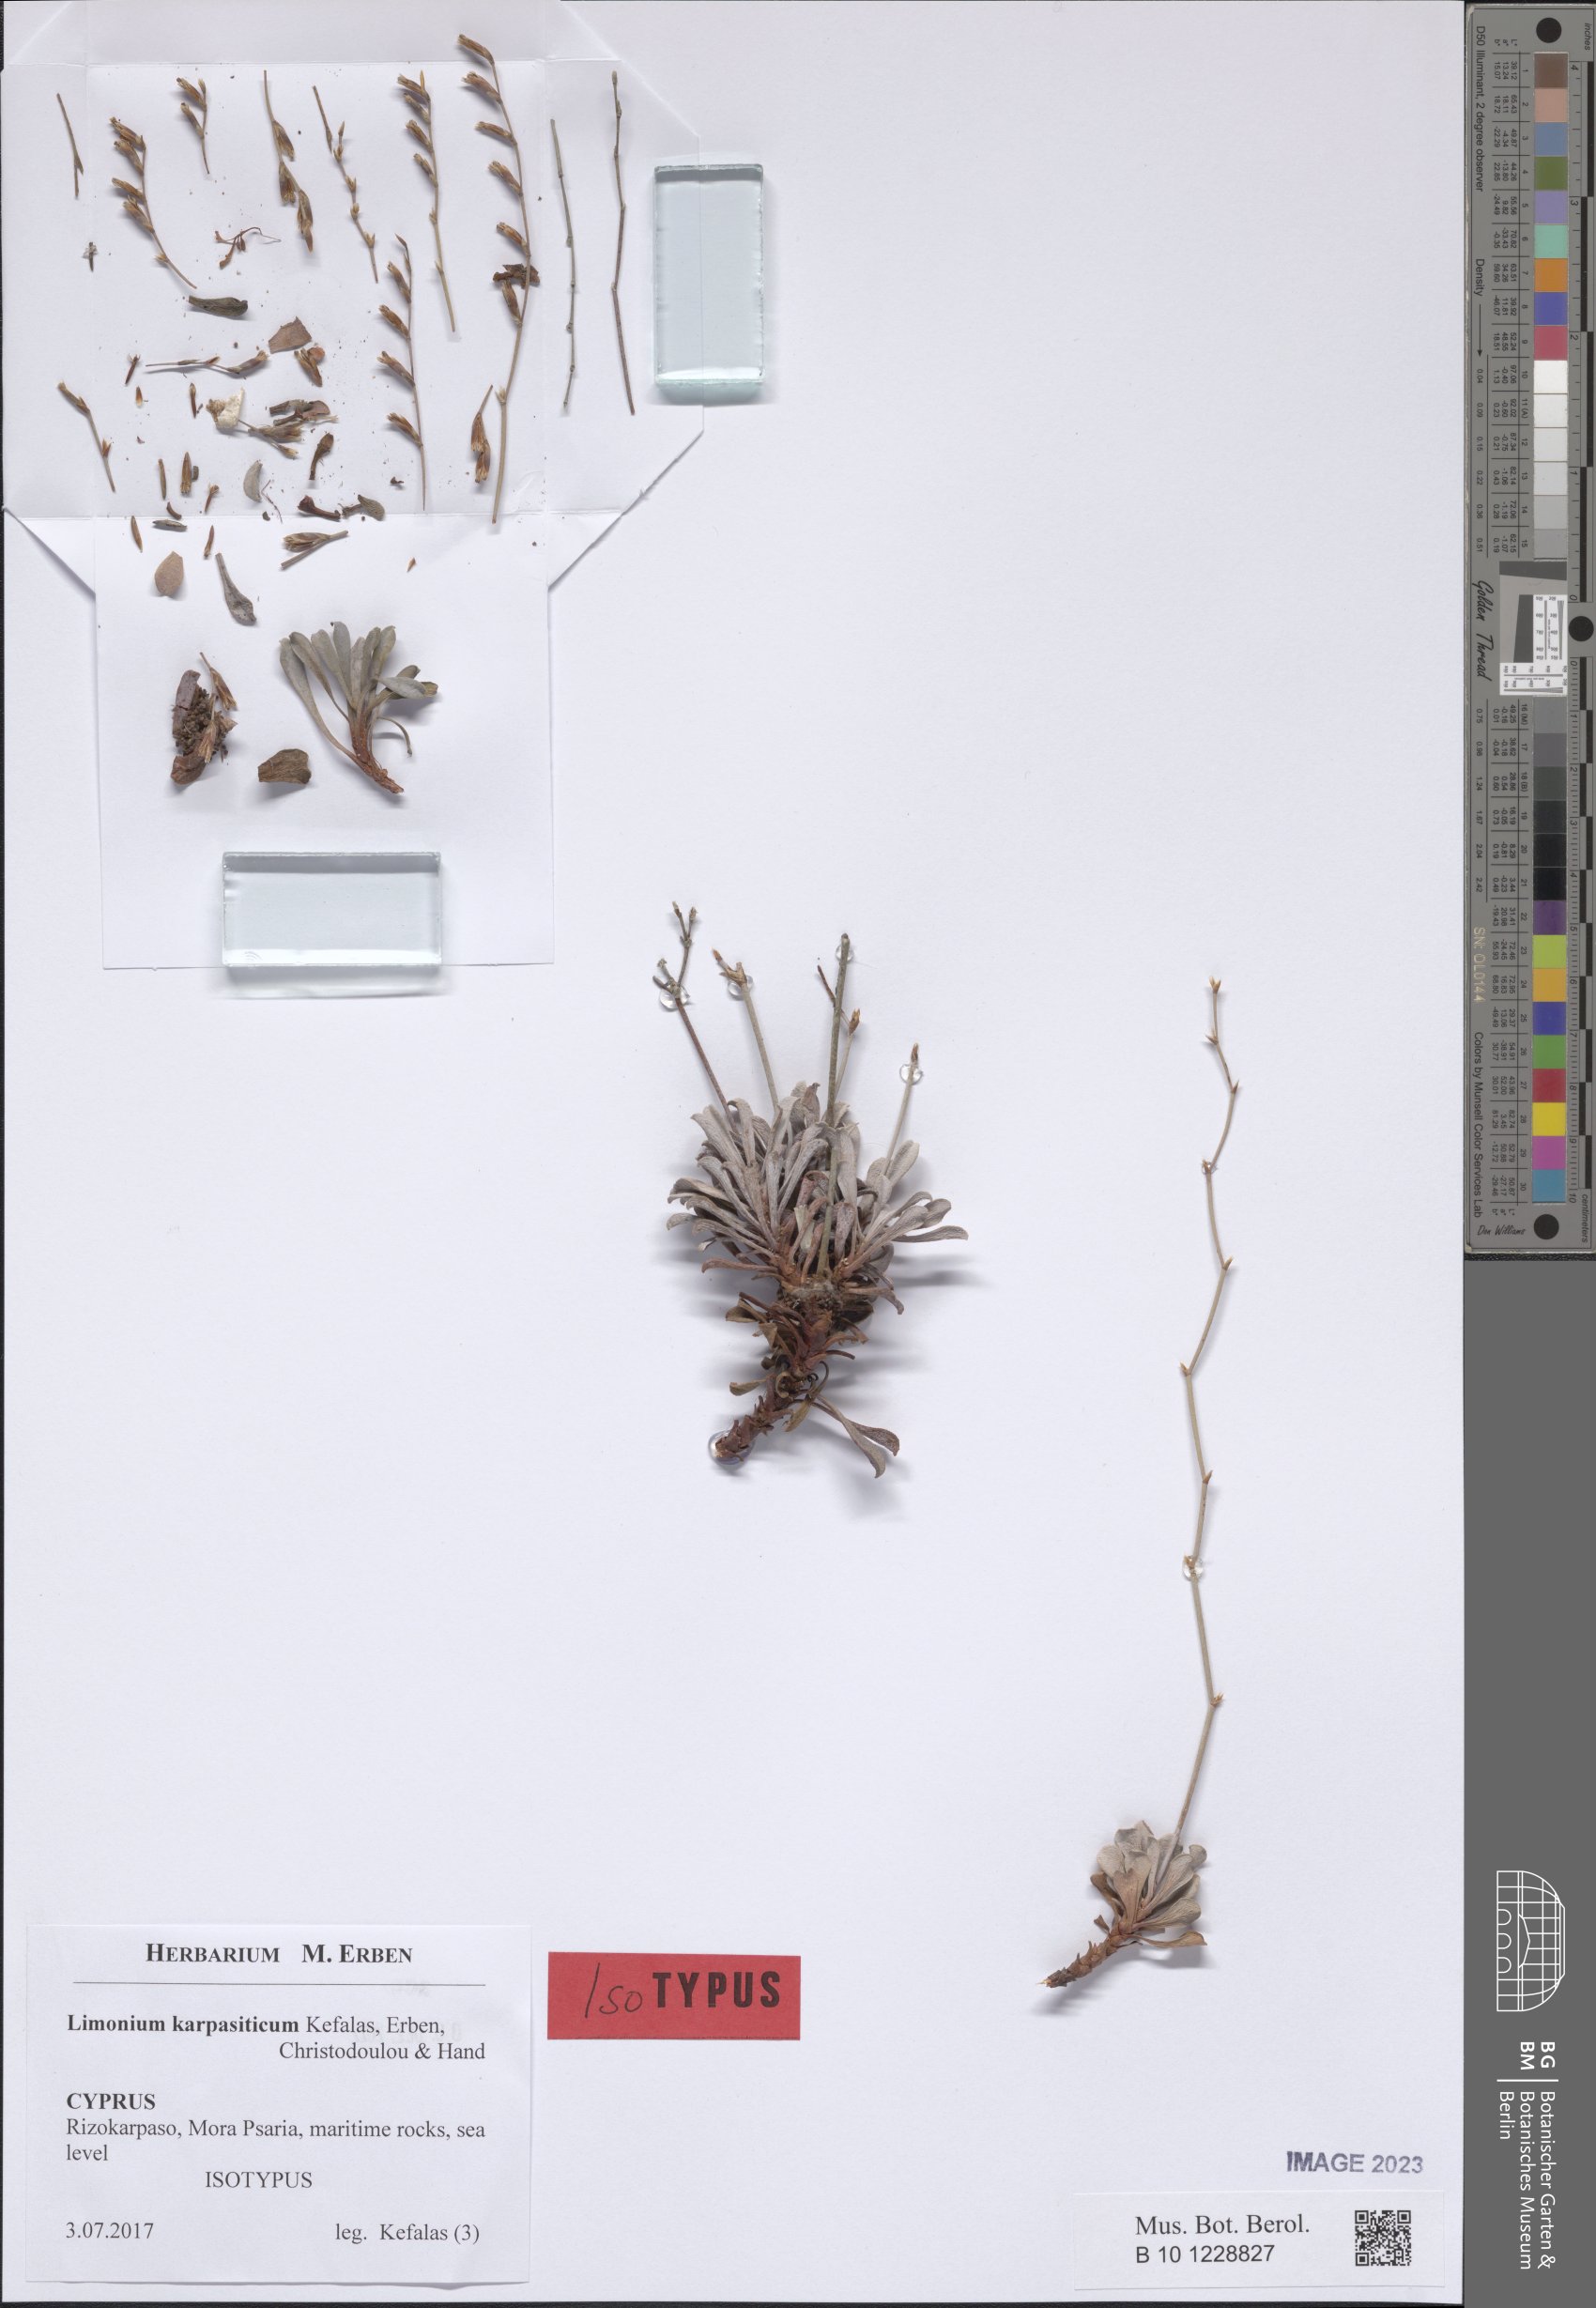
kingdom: Plantae
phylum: Tracheophyta
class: Magnoliopsida
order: Caryophyllales
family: Plumbaginaceae
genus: Limonium
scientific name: Limonium karpasiticum
